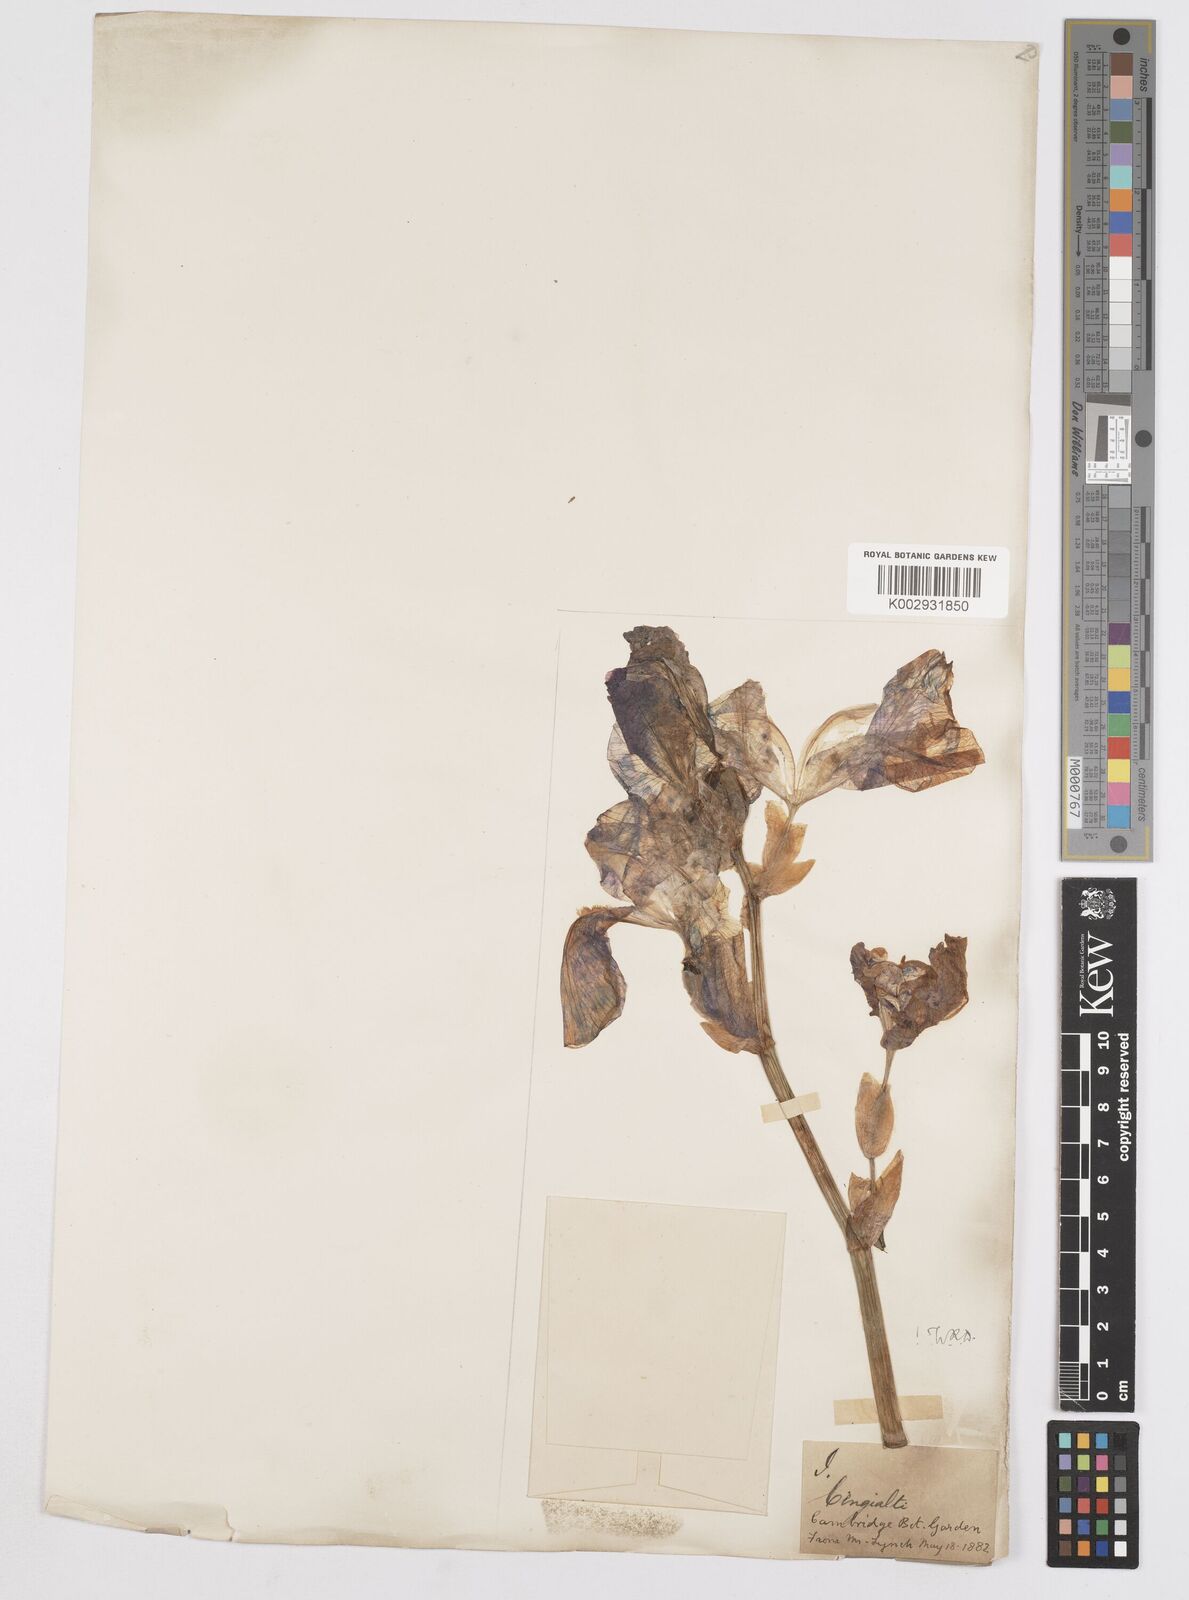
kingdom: Plantae
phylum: Tracheophyta
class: Liliopsida
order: Asparagales
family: Iridaceae
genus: Iris
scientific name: Iris pallida
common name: Sweet iris
